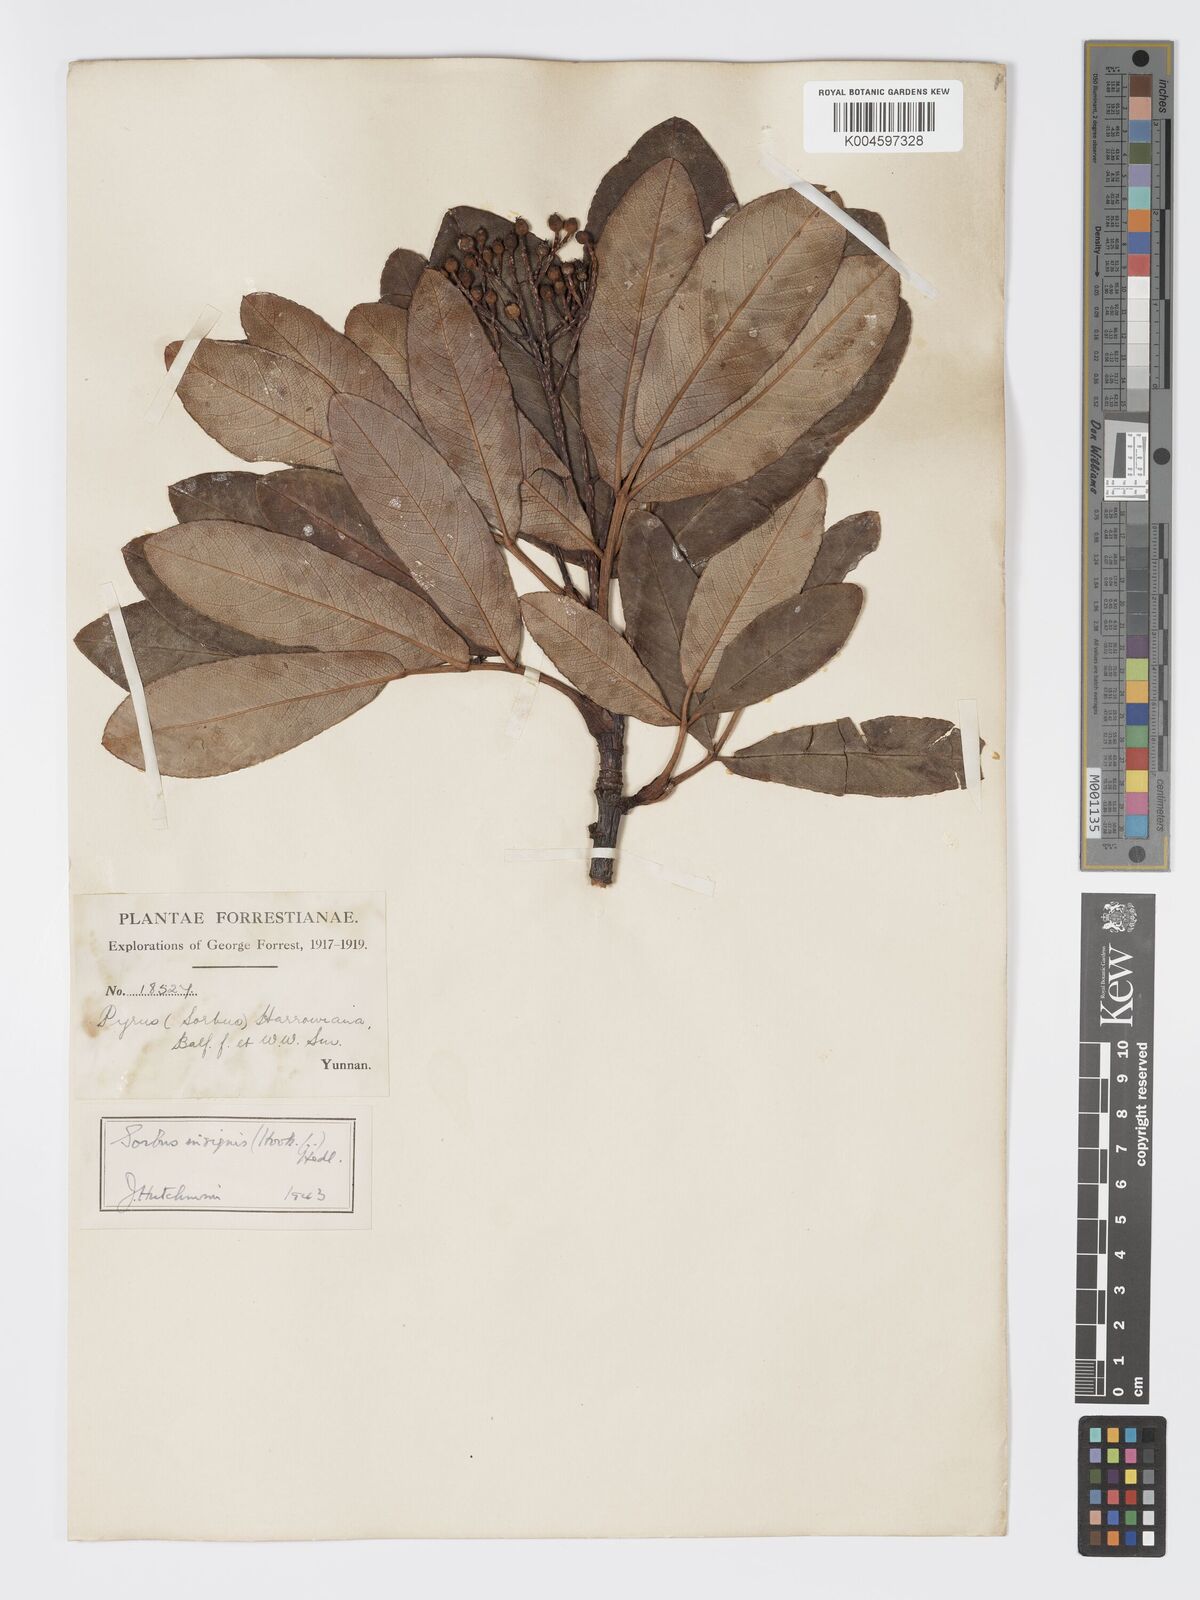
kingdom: Plantae
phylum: Tracheophyta
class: Magnoliopsida
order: Rosales
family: Rosaceae
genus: Sorbus
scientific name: Sorbus
